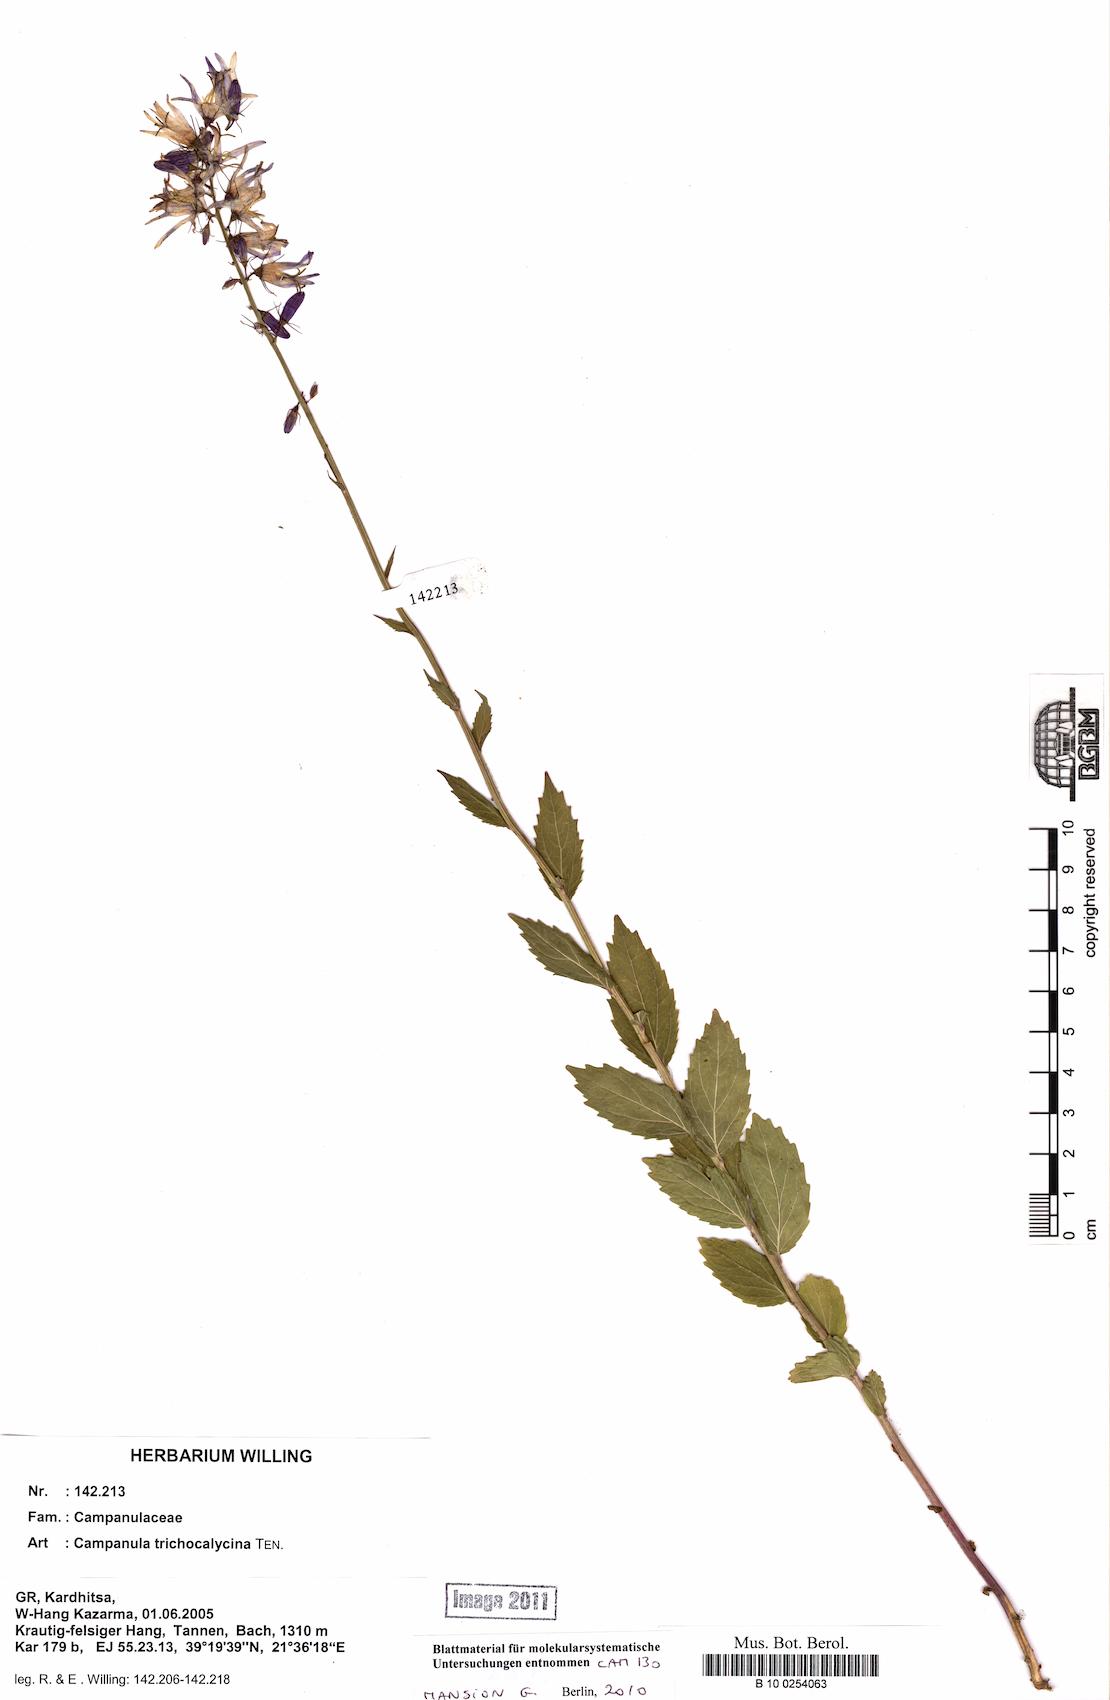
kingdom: Plantae
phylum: Tracheophyta
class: Magnoliopsida
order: Asterales
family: Campanulaceae
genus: Campanula
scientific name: Campanula trichocalycina
